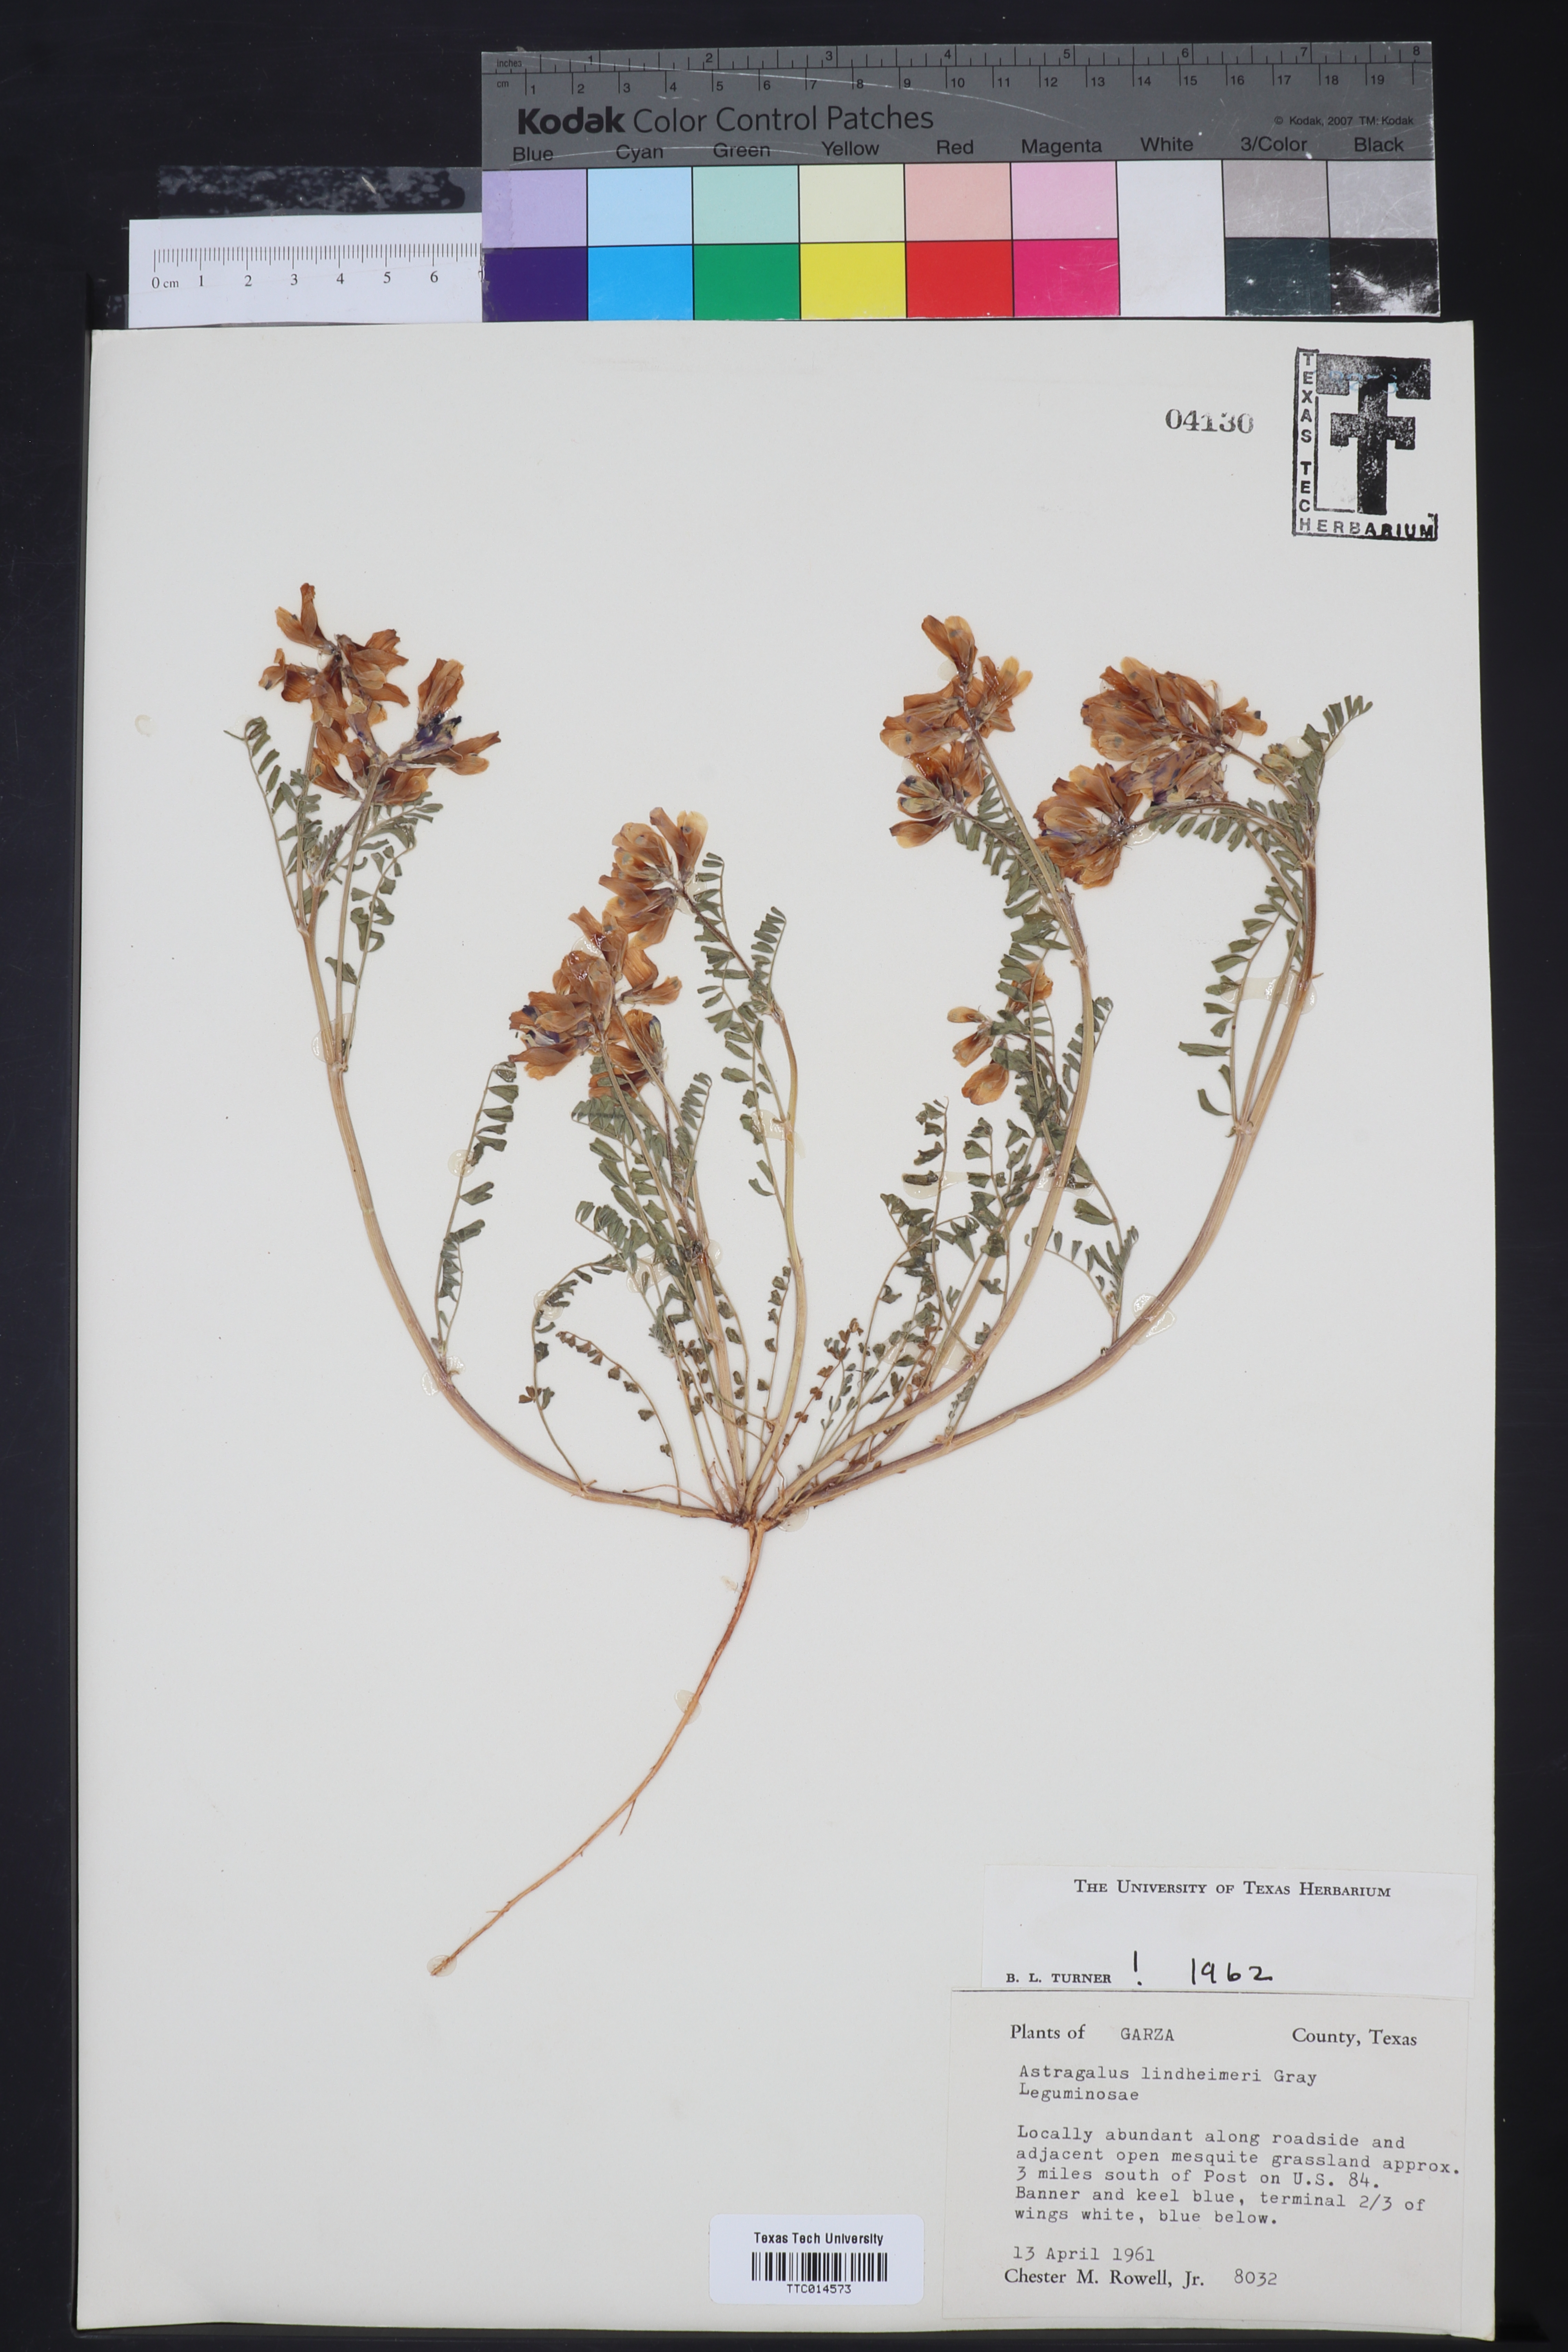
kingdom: Plantae
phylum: Tracheophyta
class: Magnoliopsida
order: Fabales
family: Fabaceae
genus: Astragalus
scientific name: Astragalus lindheimeri
